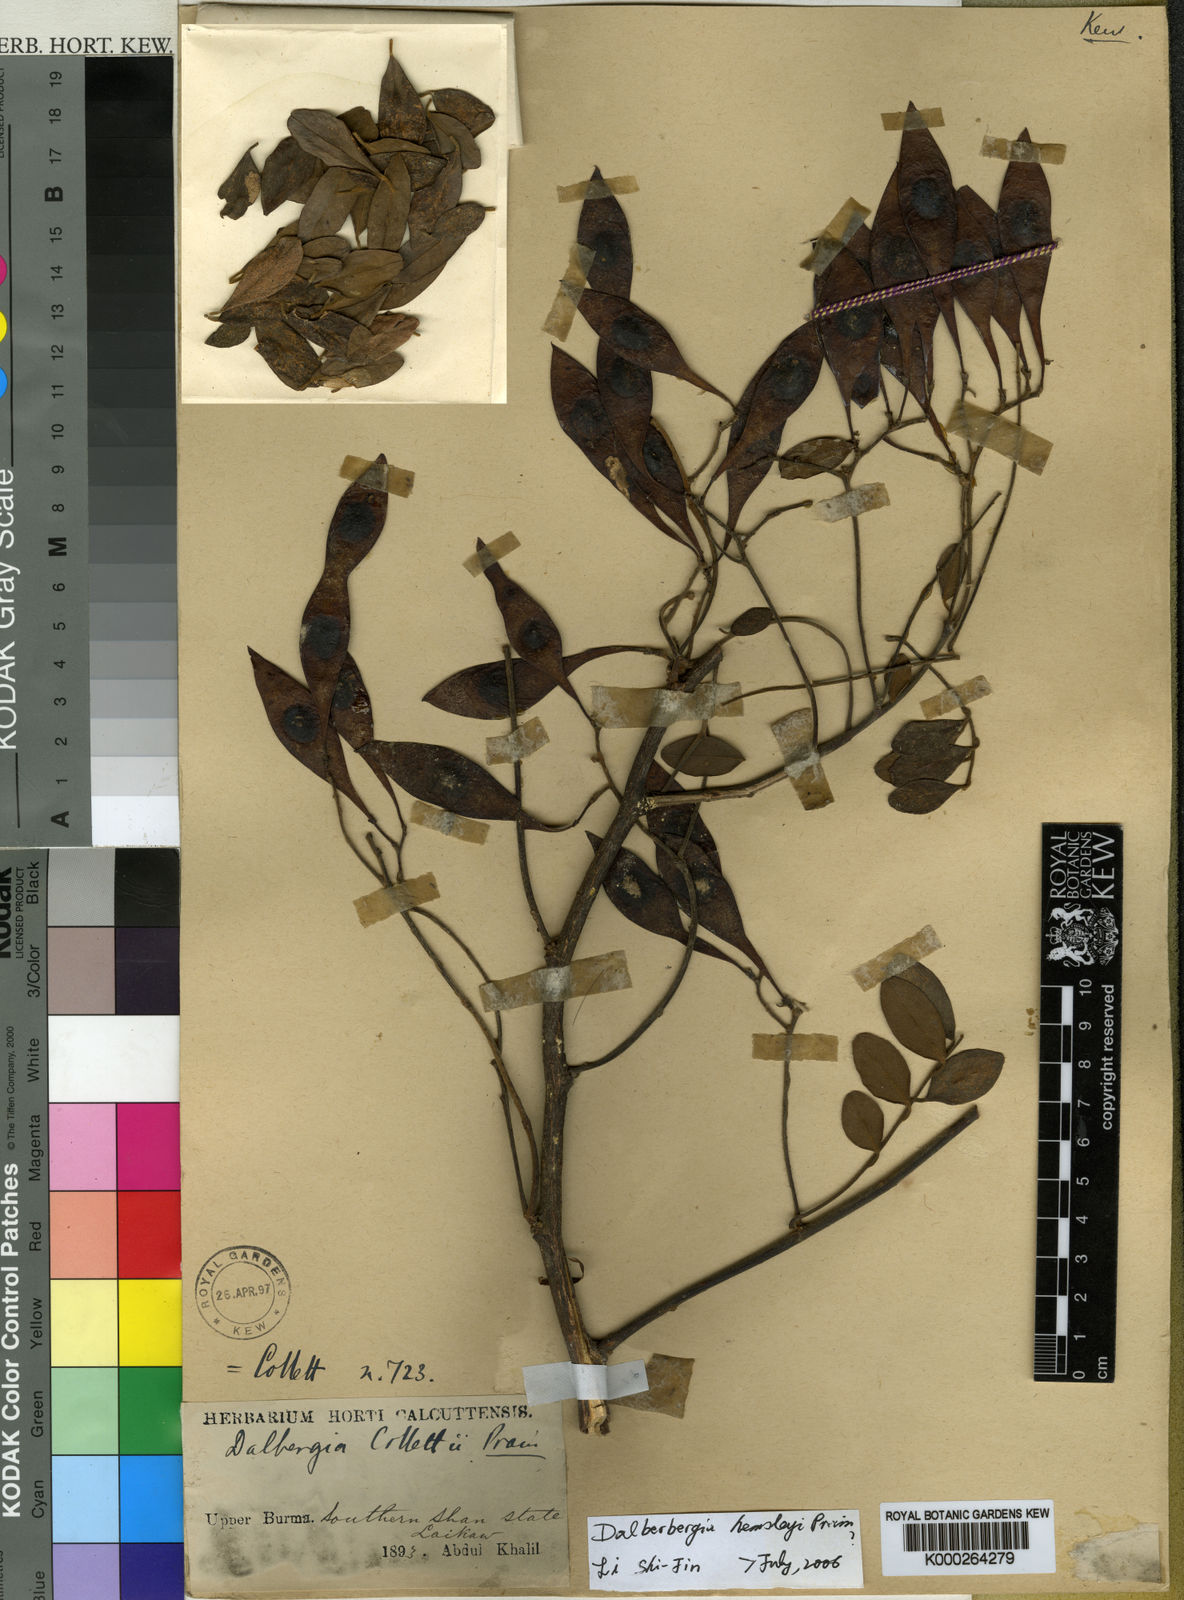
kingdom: Plantae
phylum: Tracheophyta
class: Magnoliopsida
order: Fabales
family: Fabaceae
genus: Dalbergia
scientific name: Dalbergia
